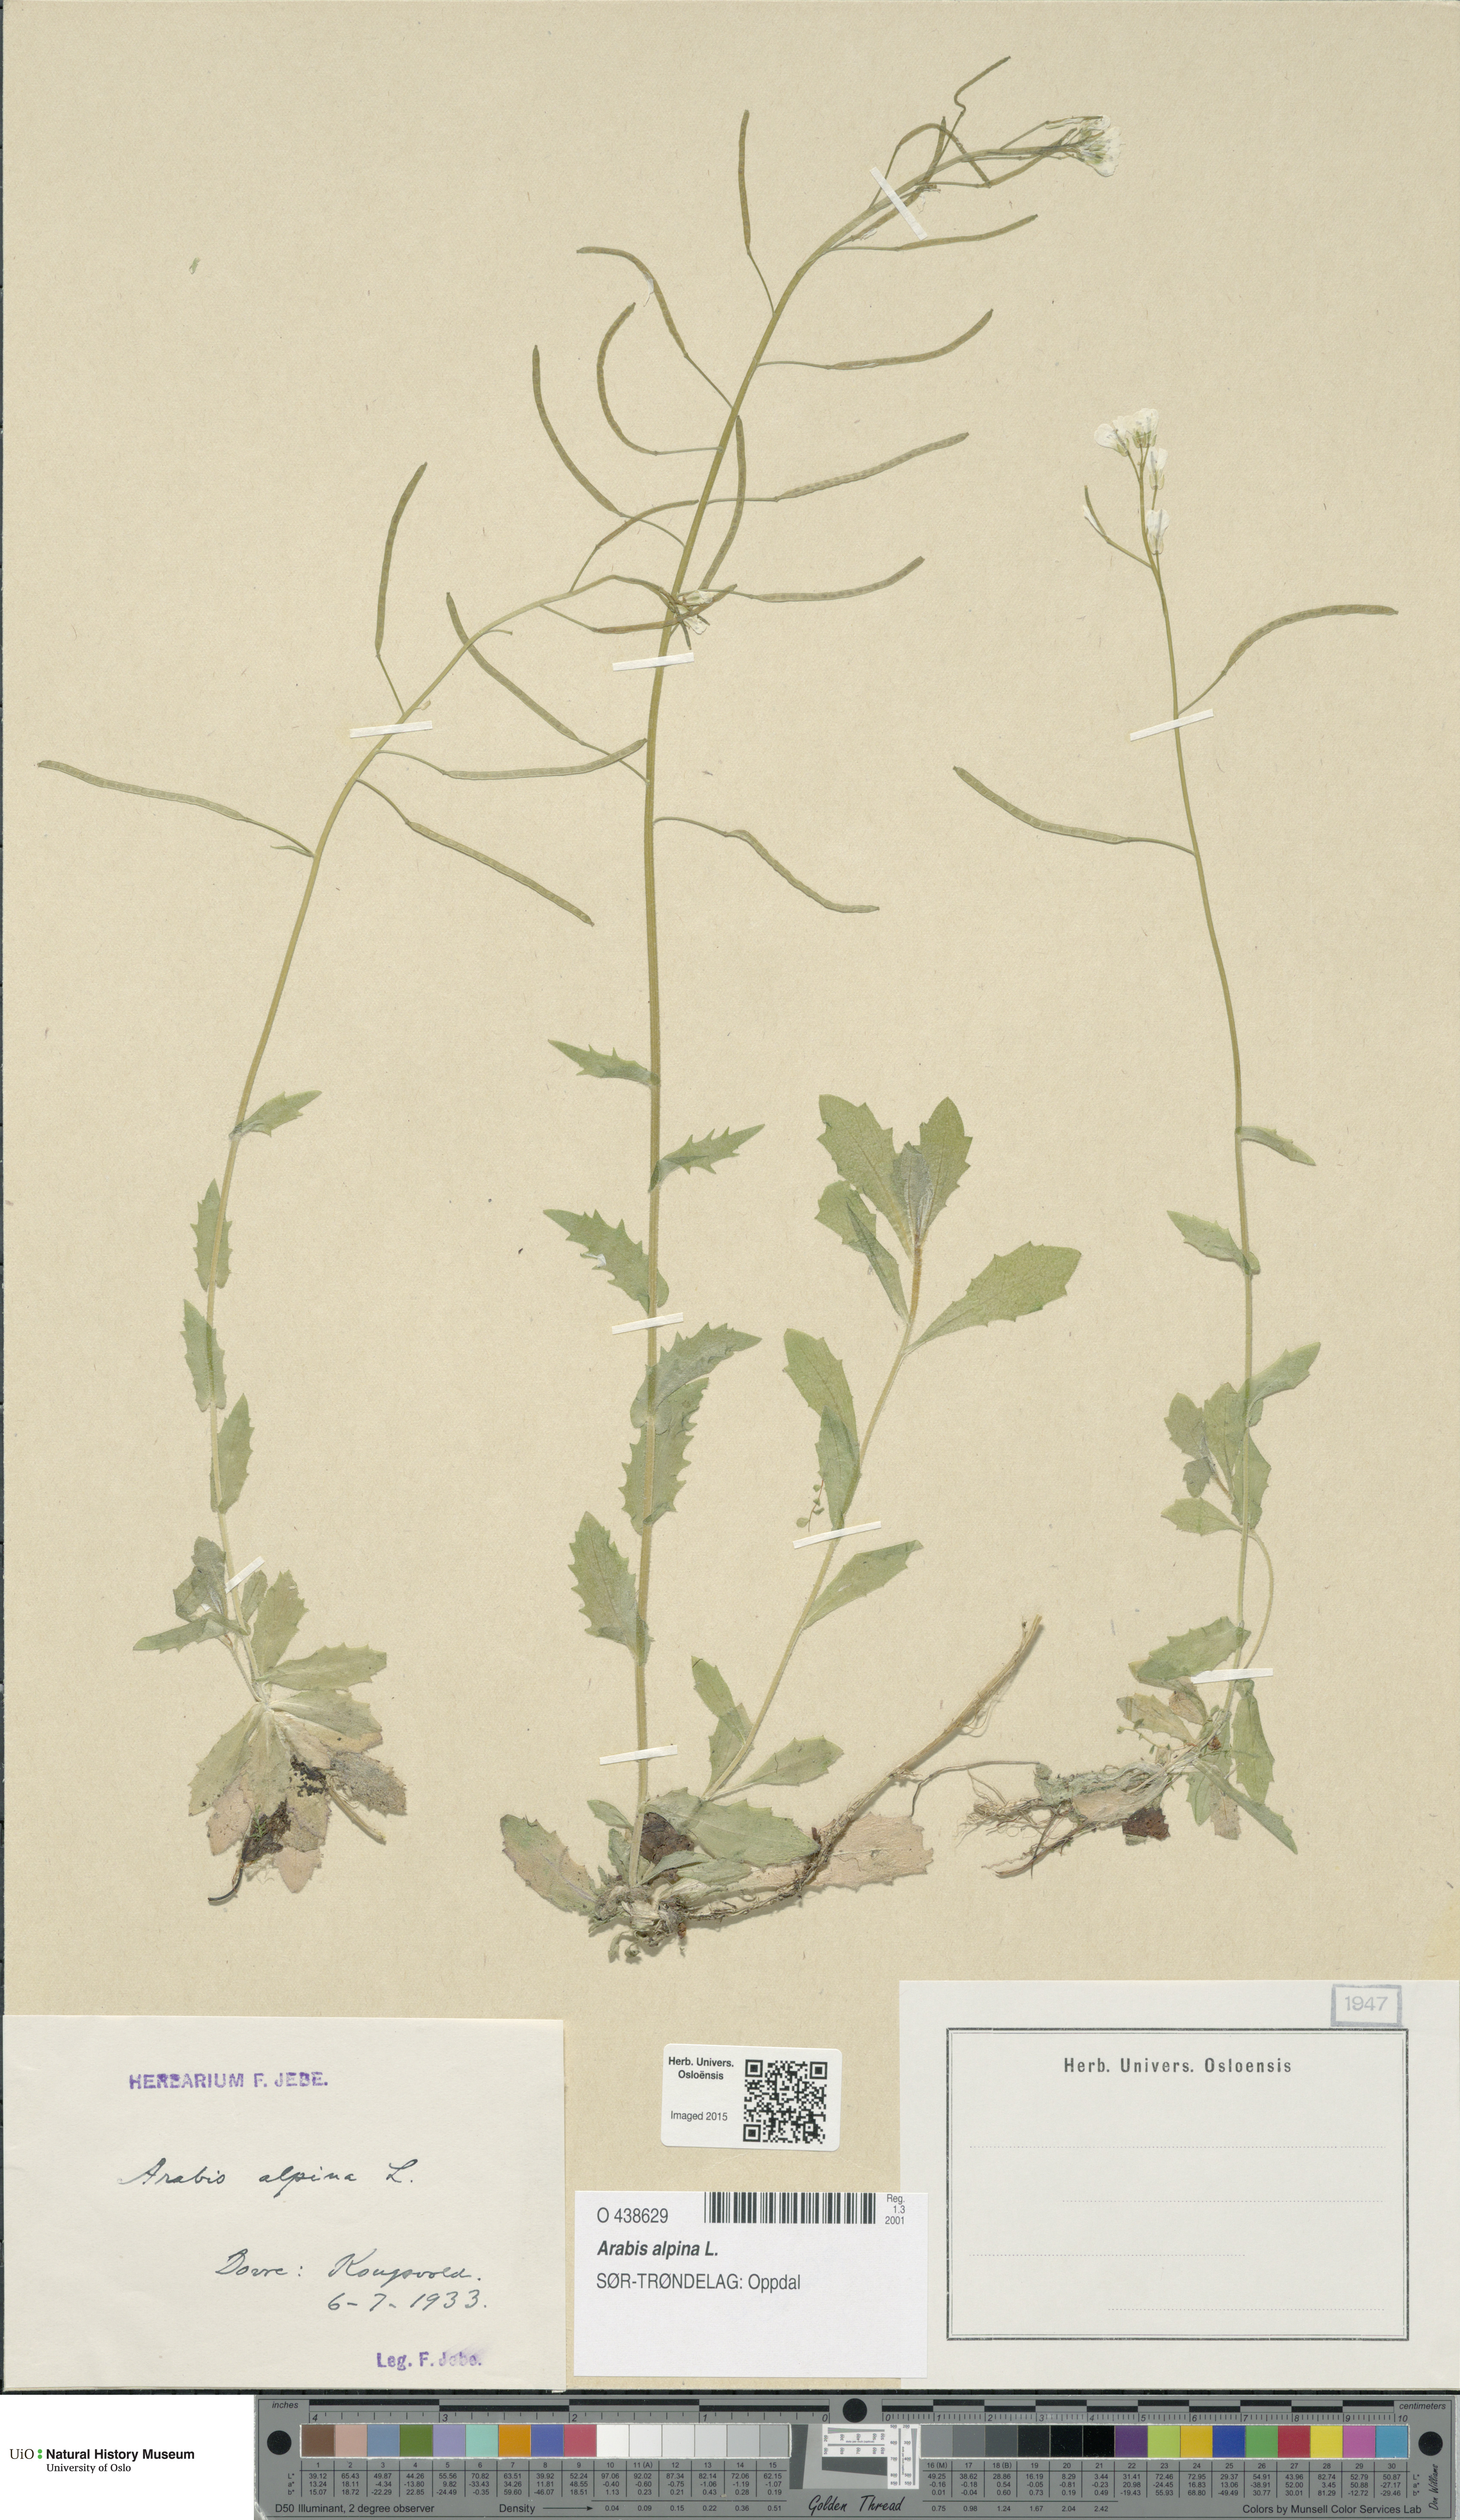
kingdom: Plantae
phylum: Tracheophyta
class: Magnoliopsida
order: Brassicales
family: Brassicaceae
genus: Arabis
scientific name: Arabis alpina
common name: Alpine rock-cress
